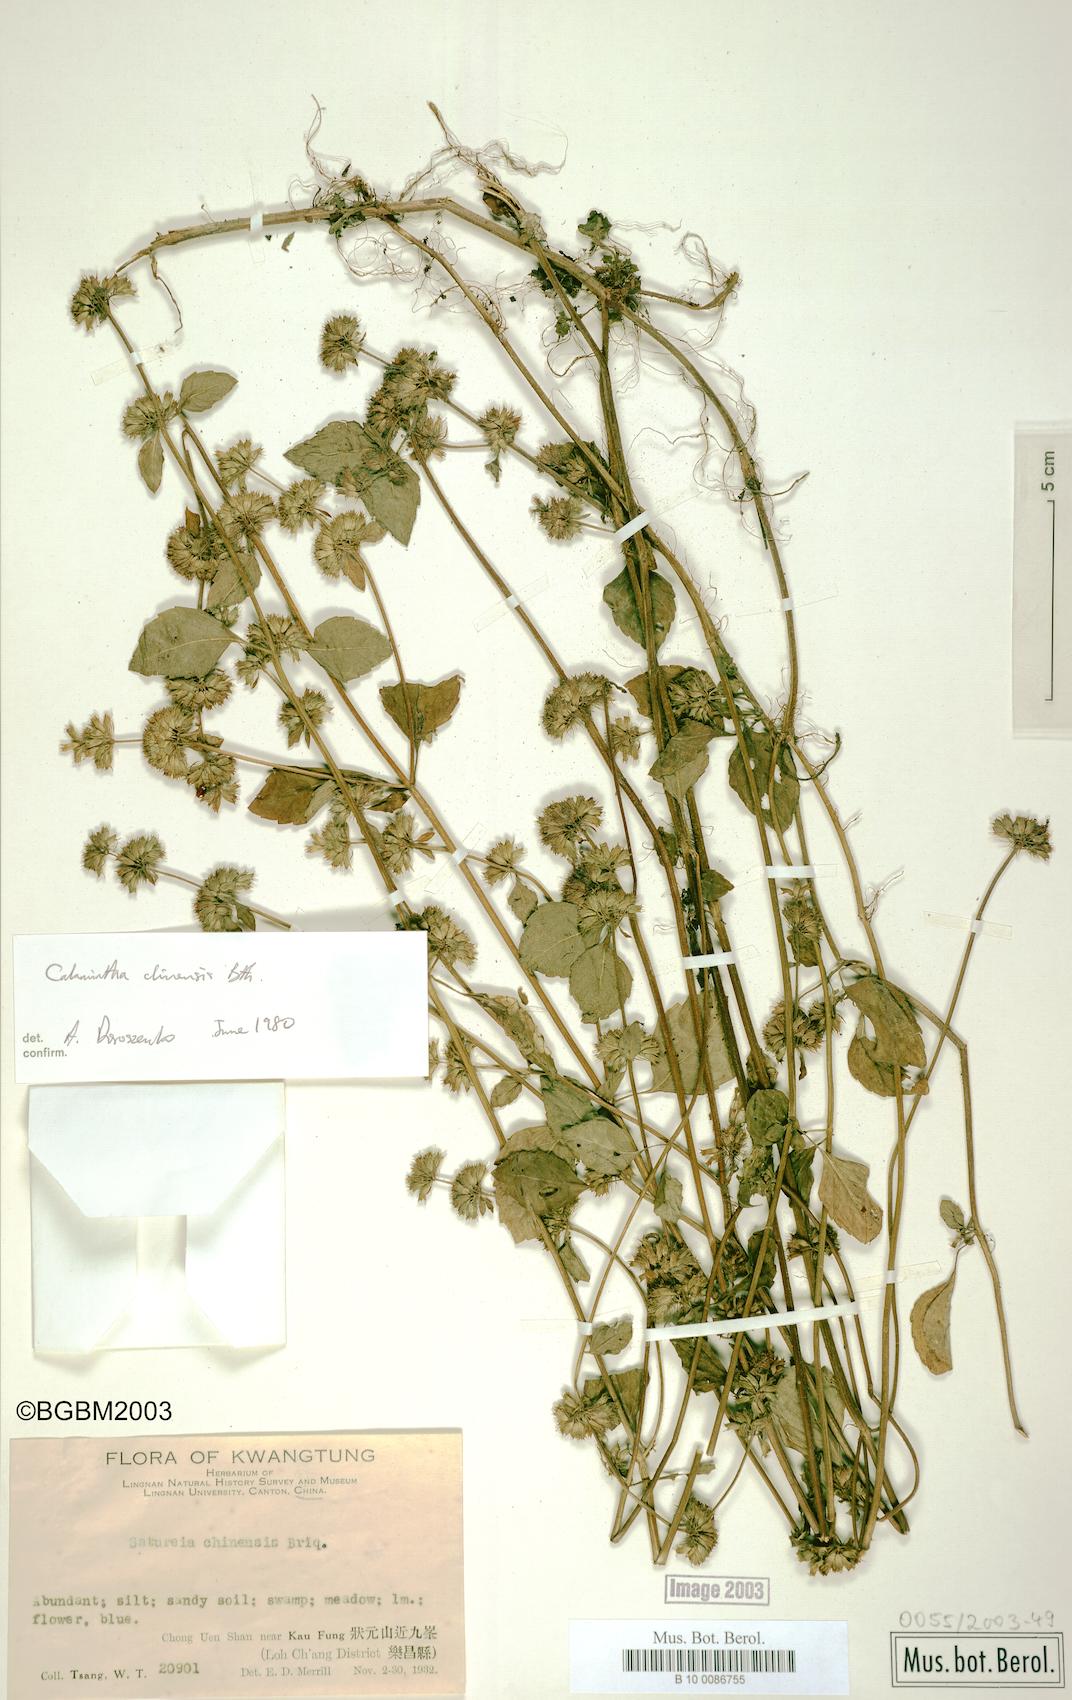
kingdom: Plantae
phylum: Tracheophyta
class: Magnoliopsida
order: Lamiales
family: Lamiaceae
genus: Clinopodium
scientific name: Clinopodium chinense
